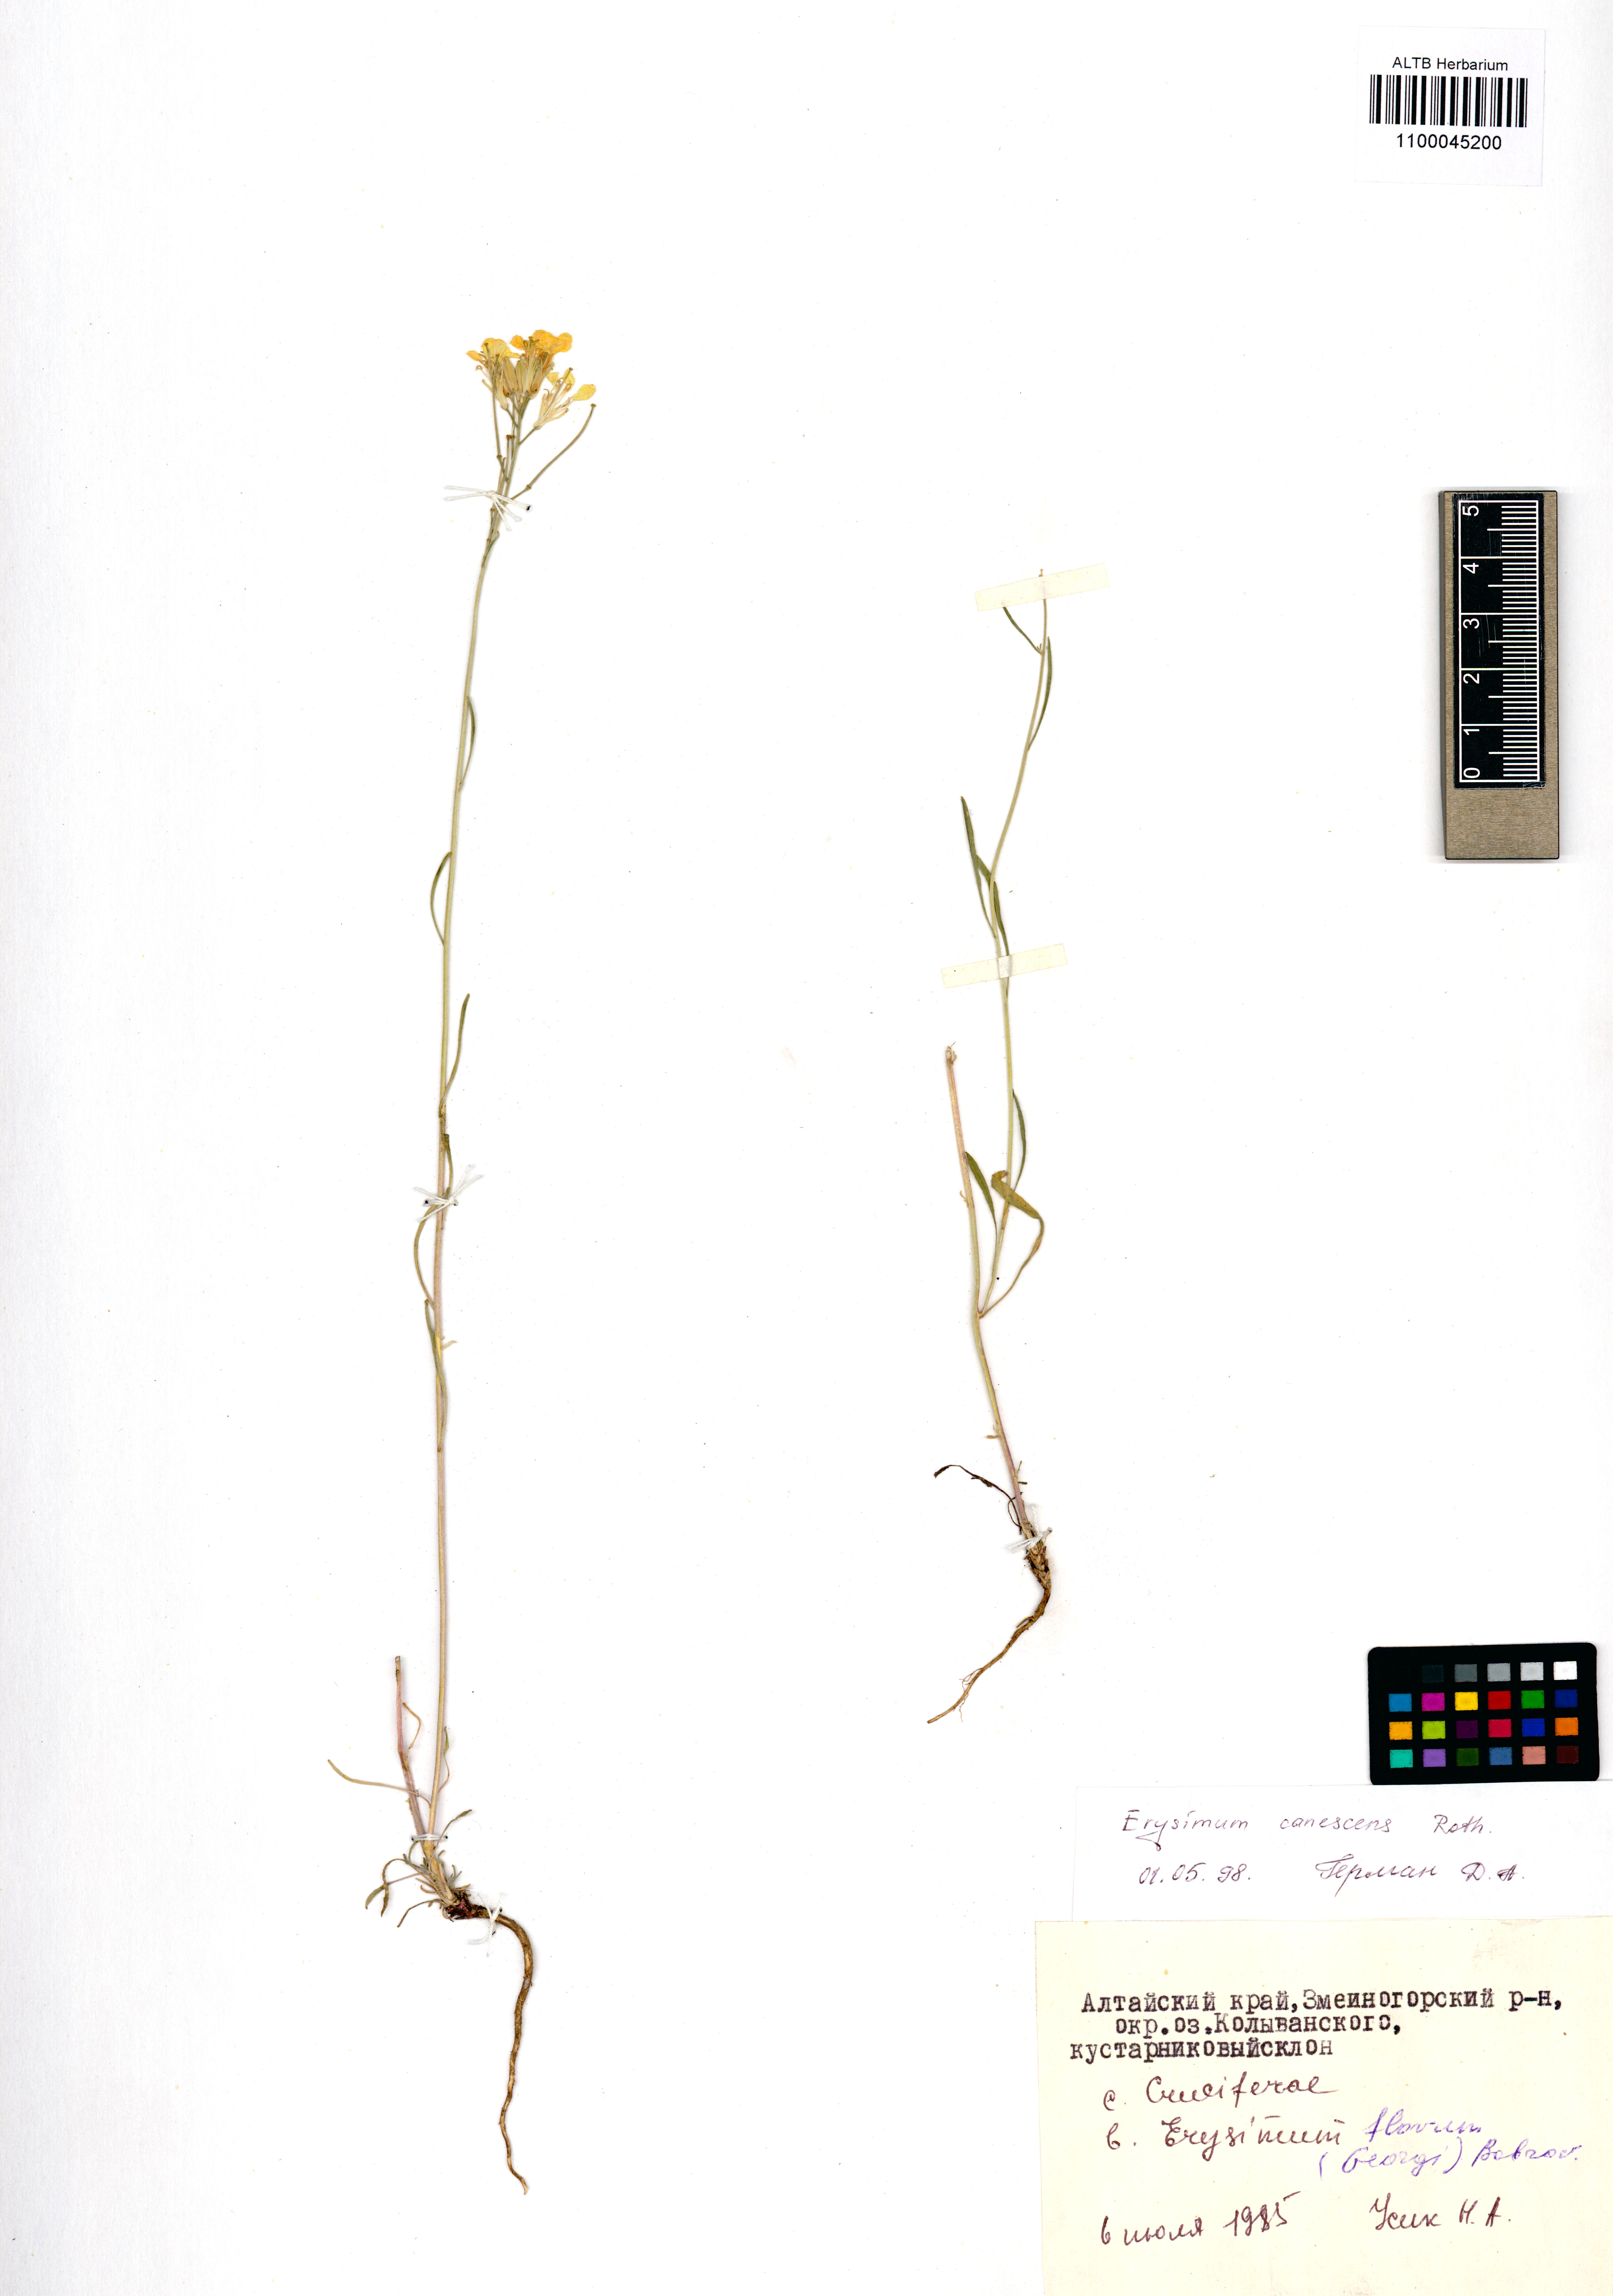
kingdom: Plantae
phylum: Tracheophyta
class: Magnoliopsida
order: Brassicales
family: Brassicaceae
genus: Erysimum
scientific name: Erysimum canescens
